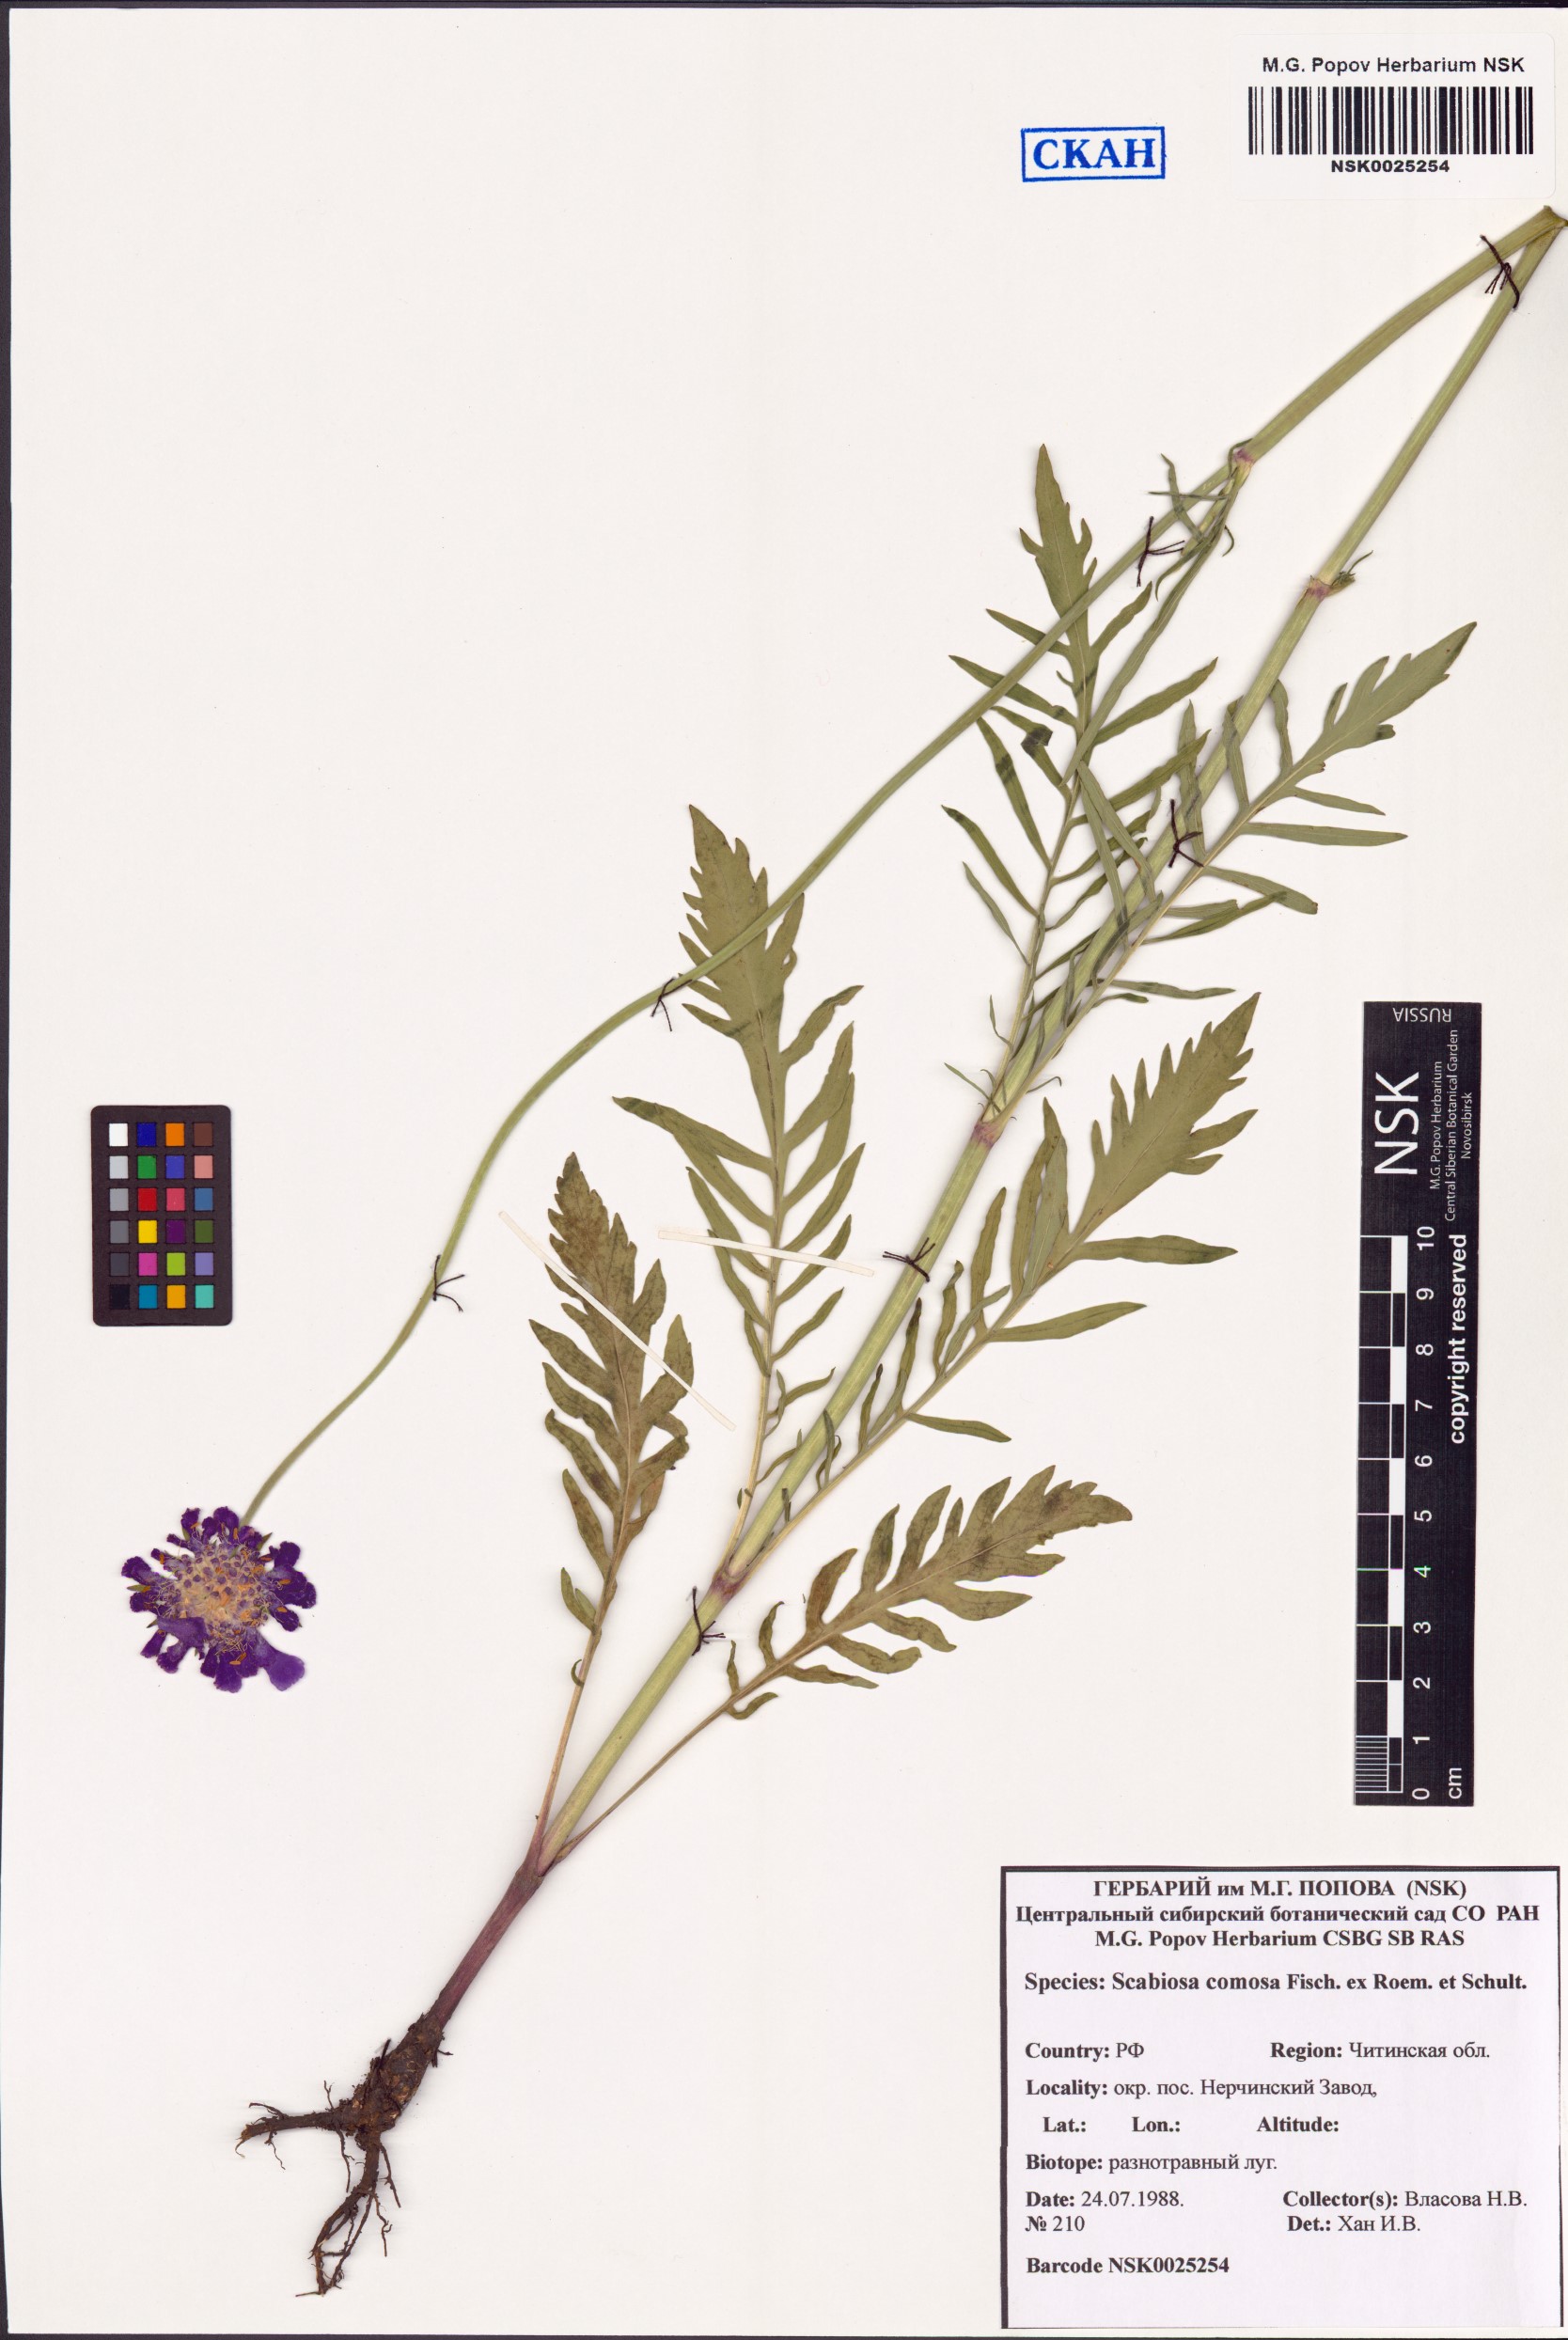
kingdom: Plantae
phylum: Tracheophyta
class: Magnoliopsida
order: Dipsacales
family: Caprifoliaceae
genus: Scabiosa
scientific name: Scabiosa comosa
